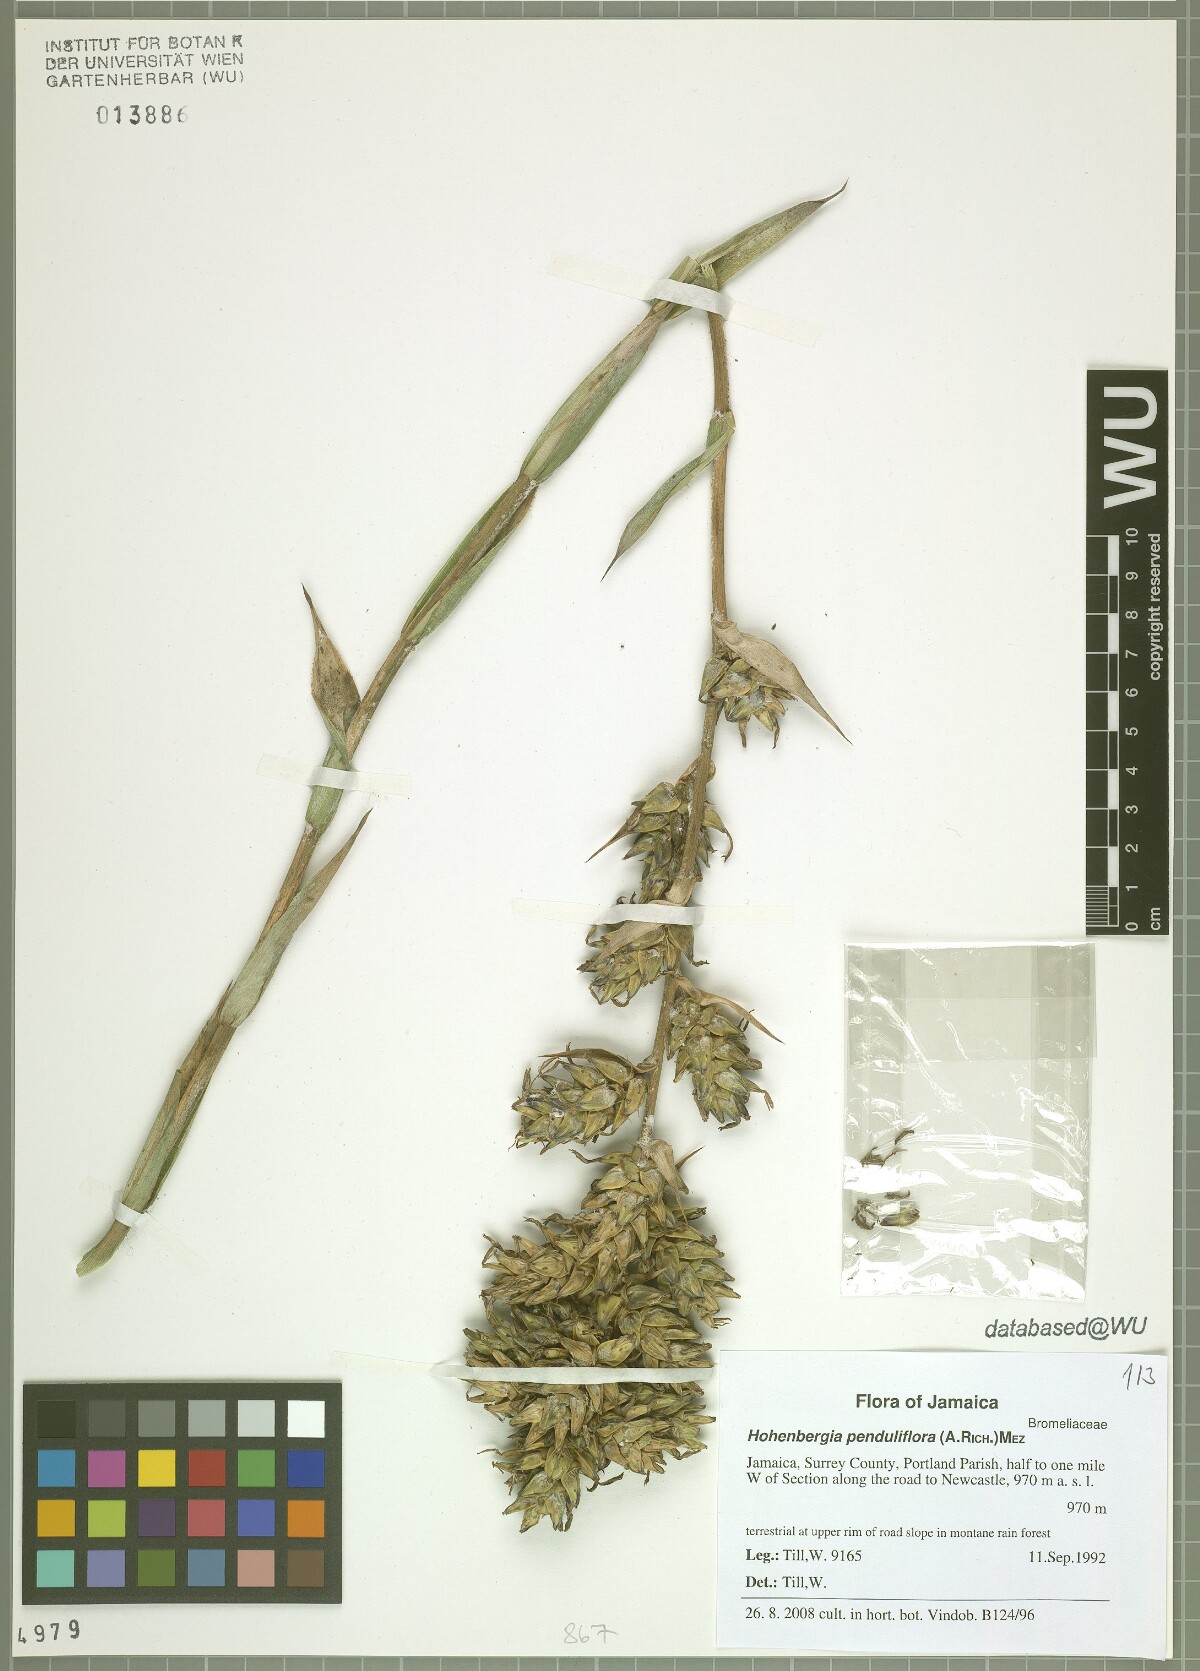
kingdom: Plantae
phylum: Tracheophyta
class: Liliopsida
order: Poales
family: Bromeliaceae
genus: Wittmackia
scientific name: Wittmackia penduliflora
